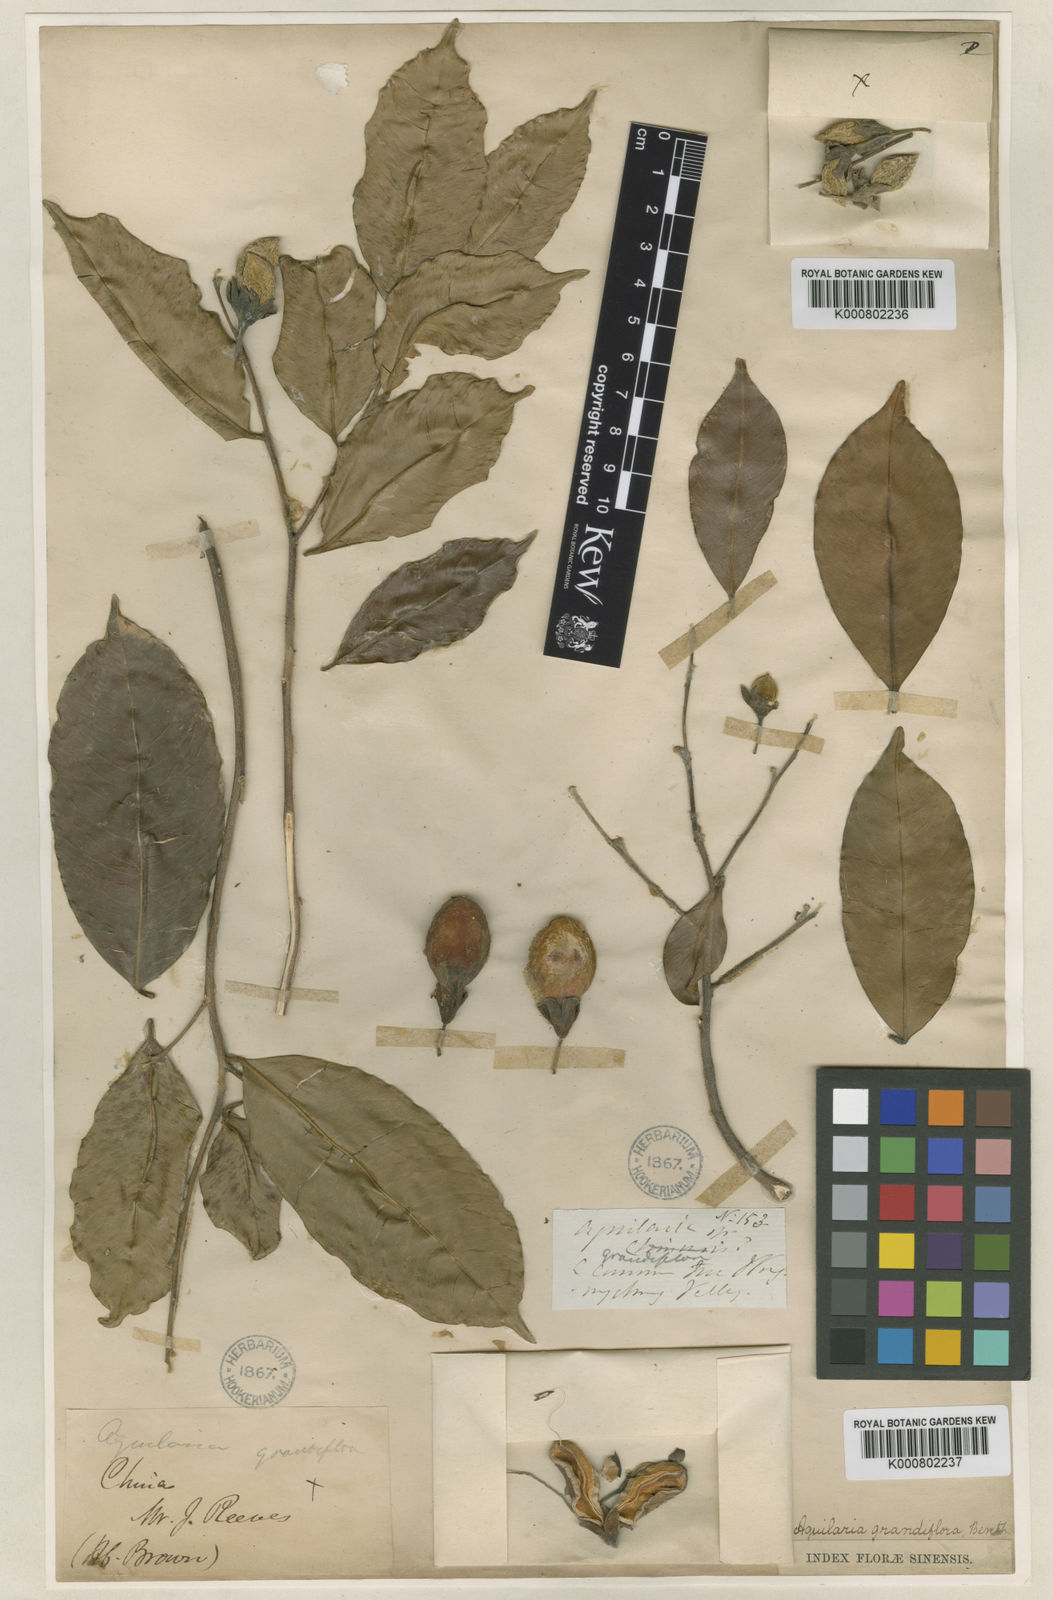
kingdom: Plantae
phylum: Tracheophyta
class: Magnoliopsida
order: Malvales
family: Thymelaeaceae
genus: Aquilaria
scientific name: Aquilaria sinensis
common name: Chinese agarwood
